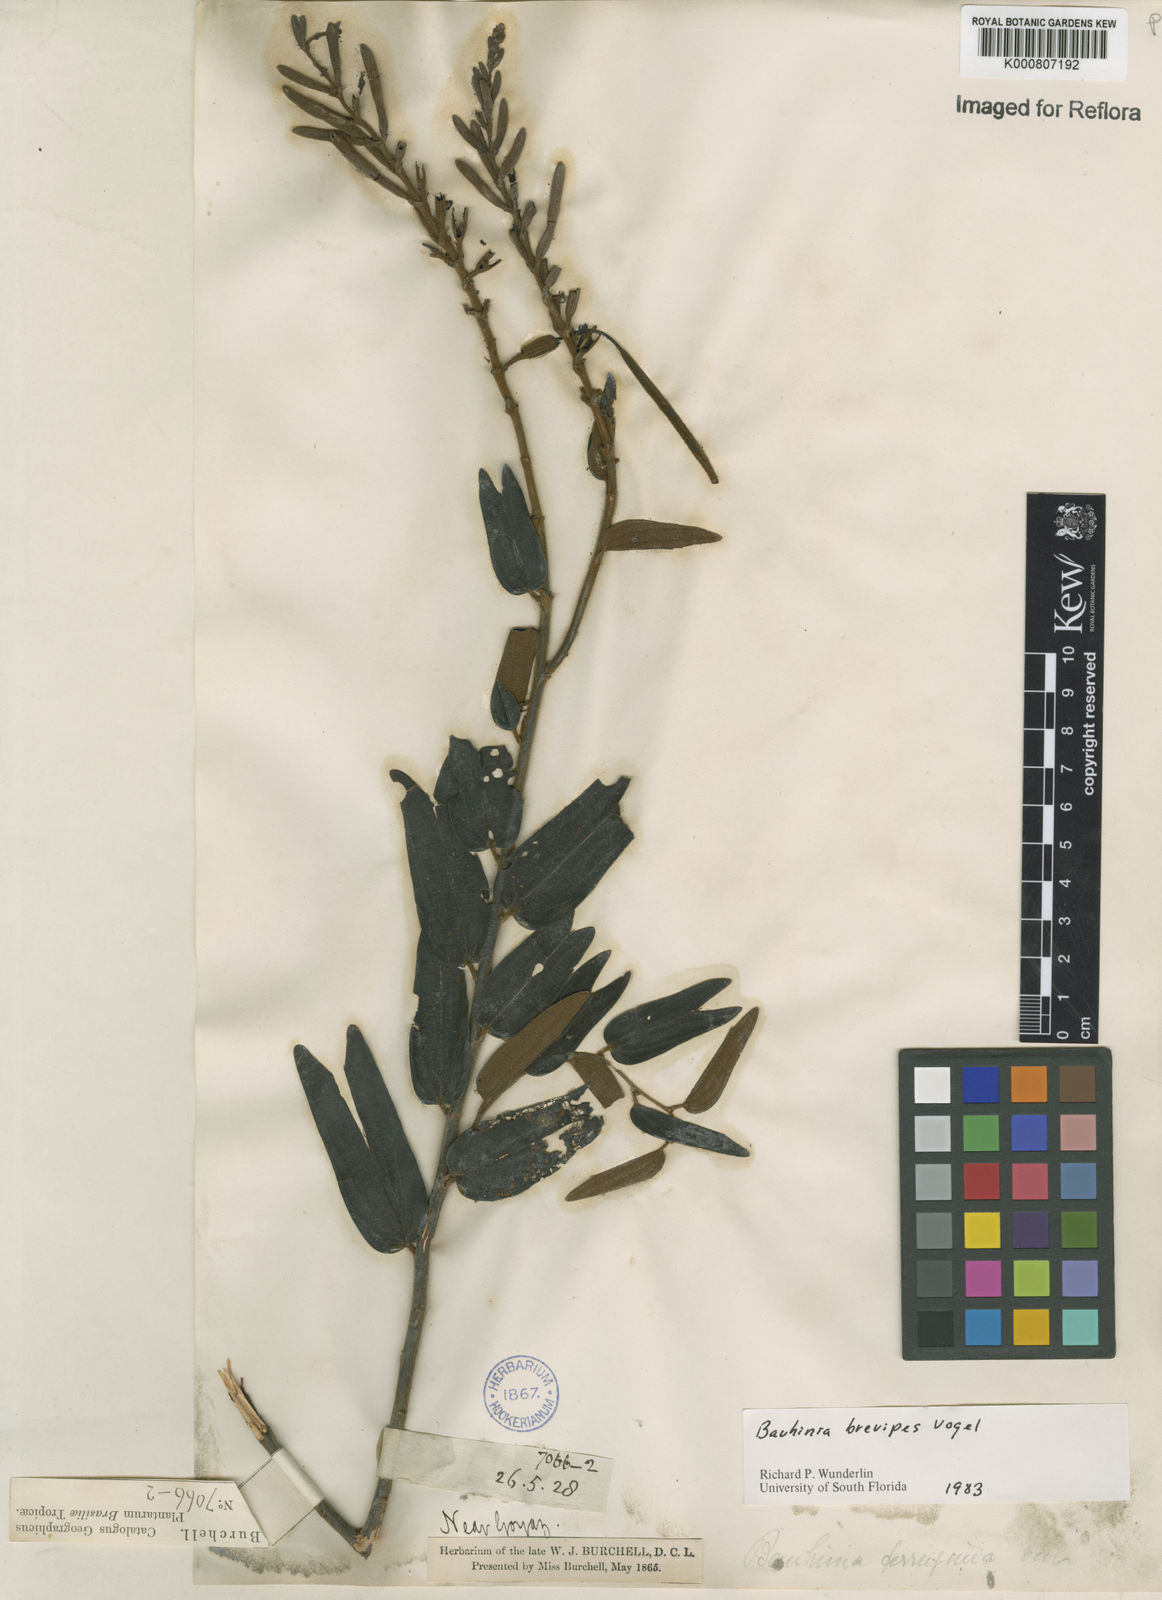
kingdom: Plantae
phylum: Tracheophyta
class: Magnoliopsida
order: Fabales
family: Fabaceae
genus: Bauhinia
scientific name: Bauhinia brevipes
